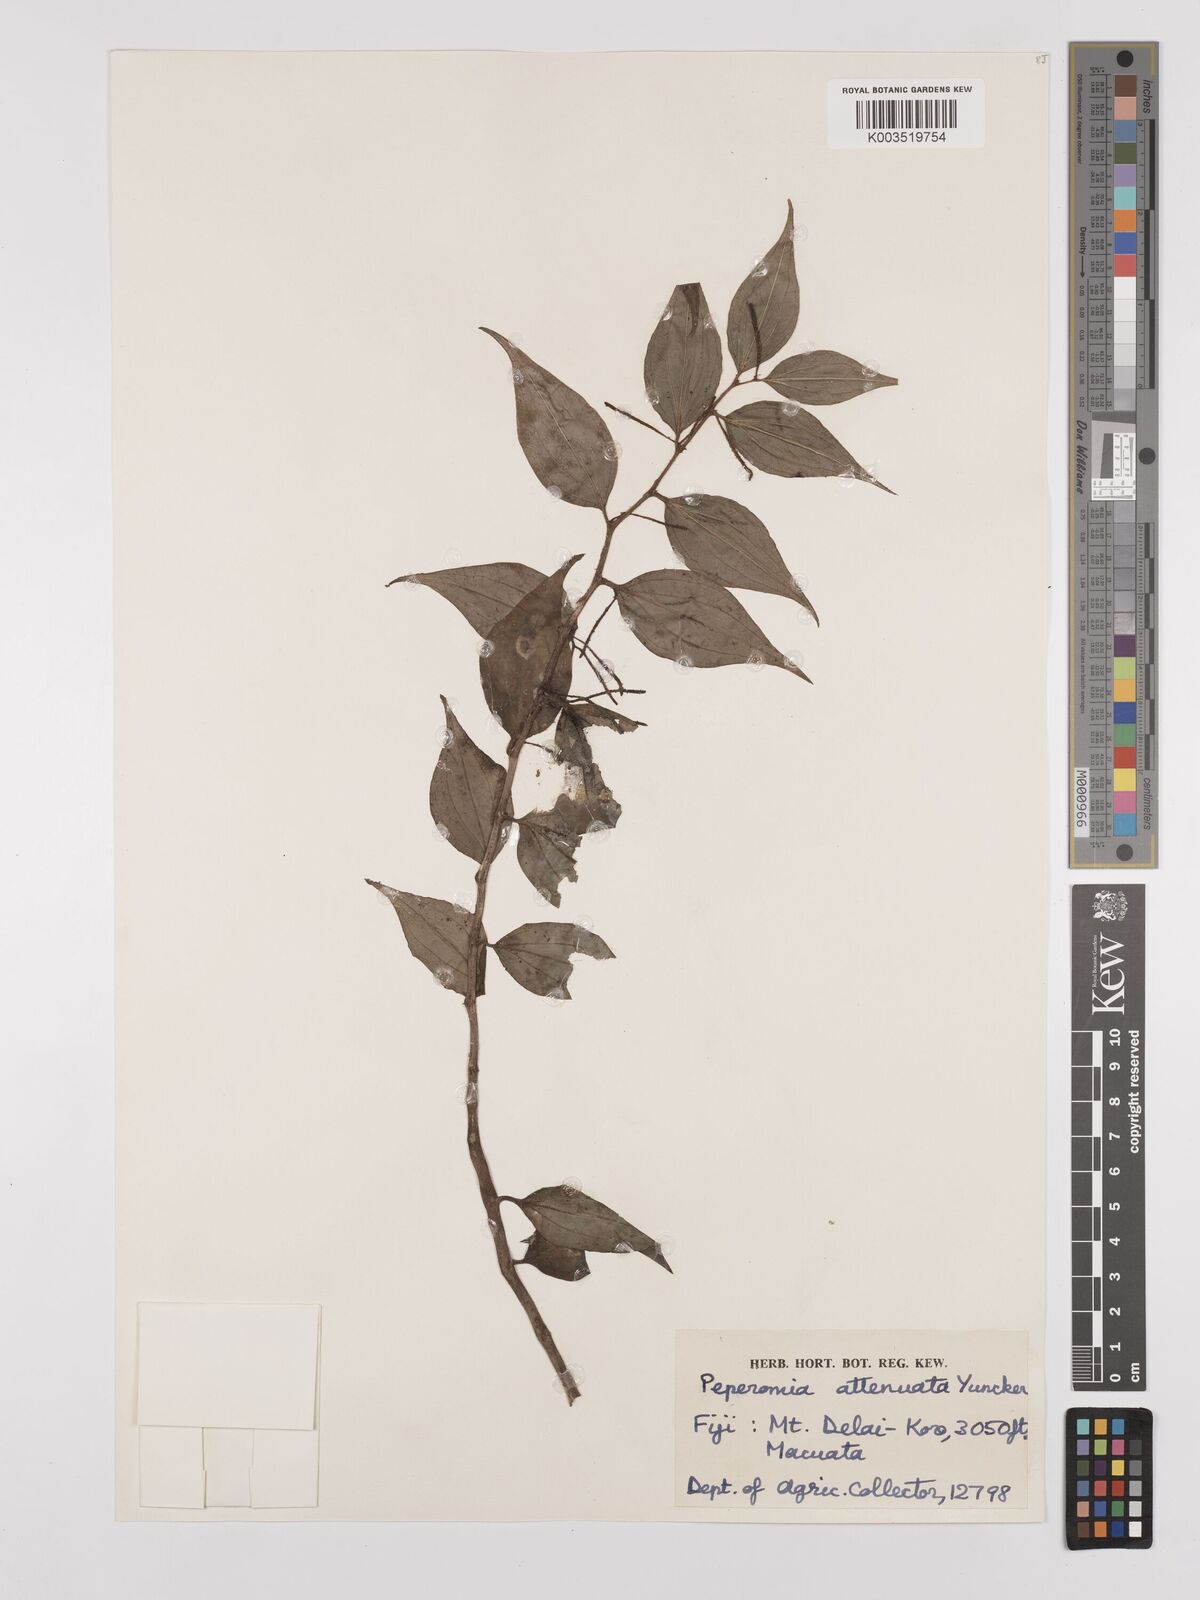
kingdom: Plantae
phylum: Tracheophyta
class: Magnoliopsida
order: Piperales
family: Piperaceae
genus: Peperomia
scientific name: Peperomia attenuata
